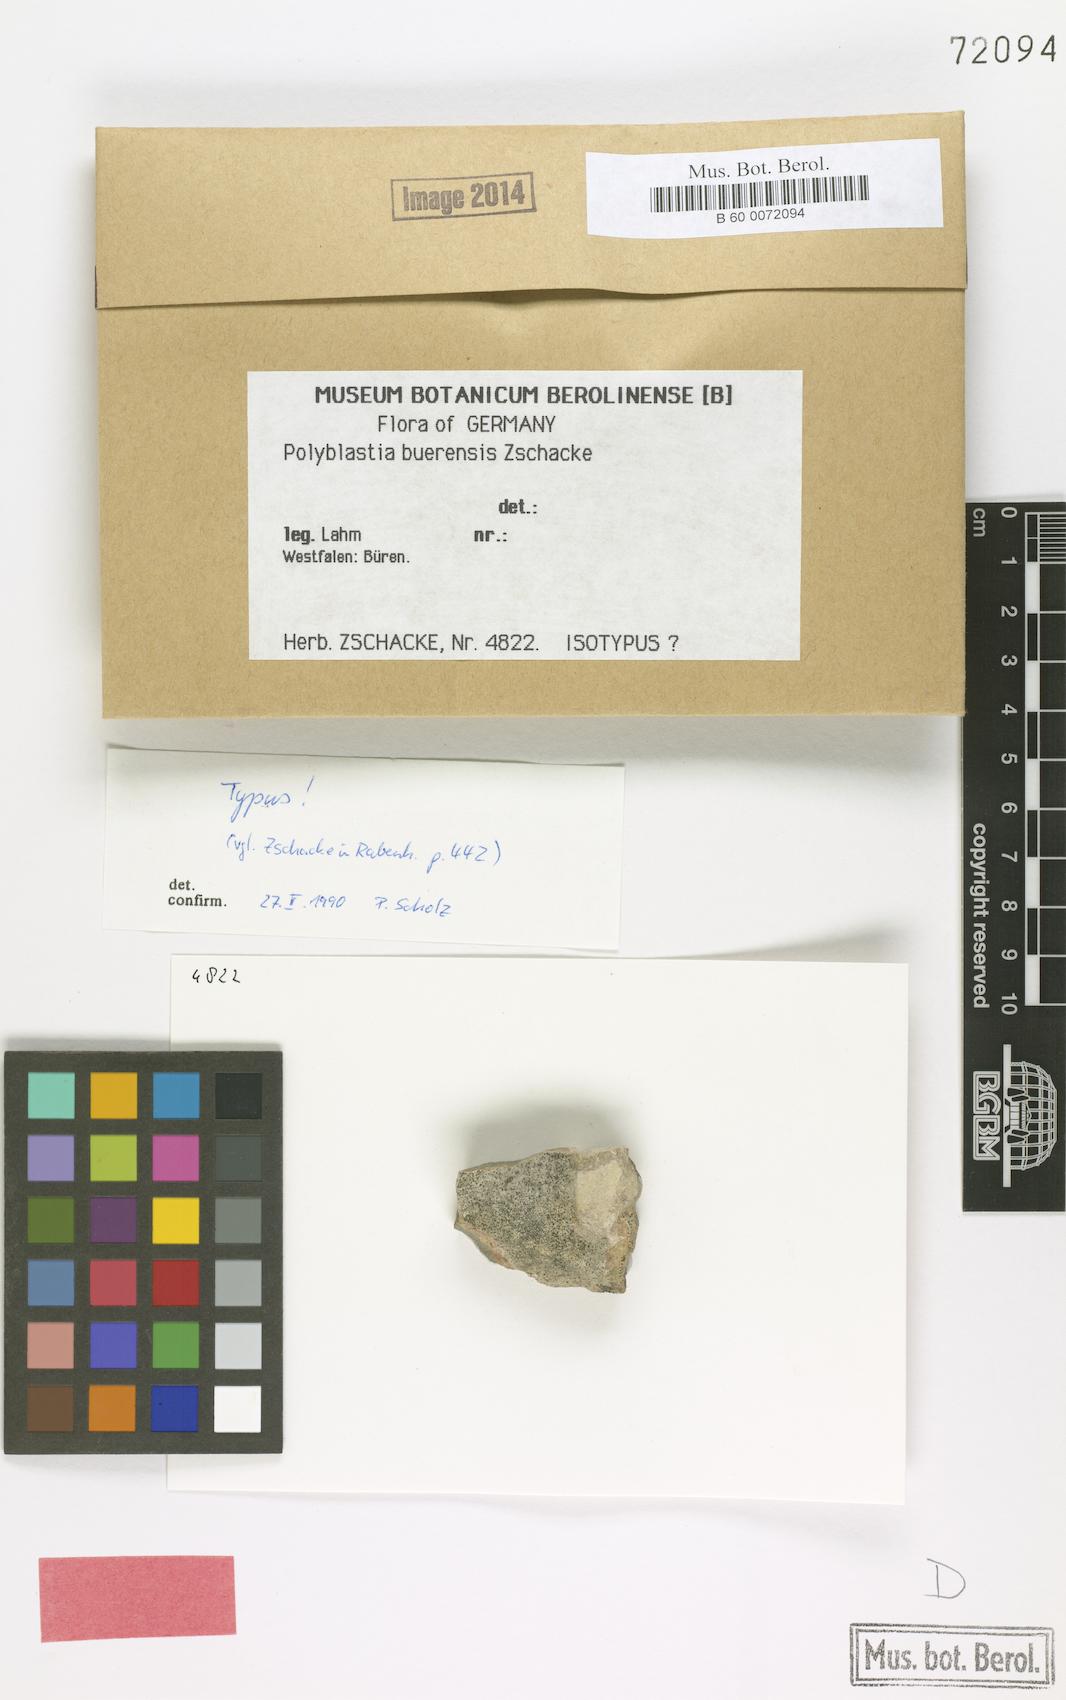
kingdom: Fungi
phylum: Ascomycota
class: Eurotiomycetes
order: Verrucariales
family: Verrucariaceae
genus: Polyblastia
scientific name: Polyblastia burensis
